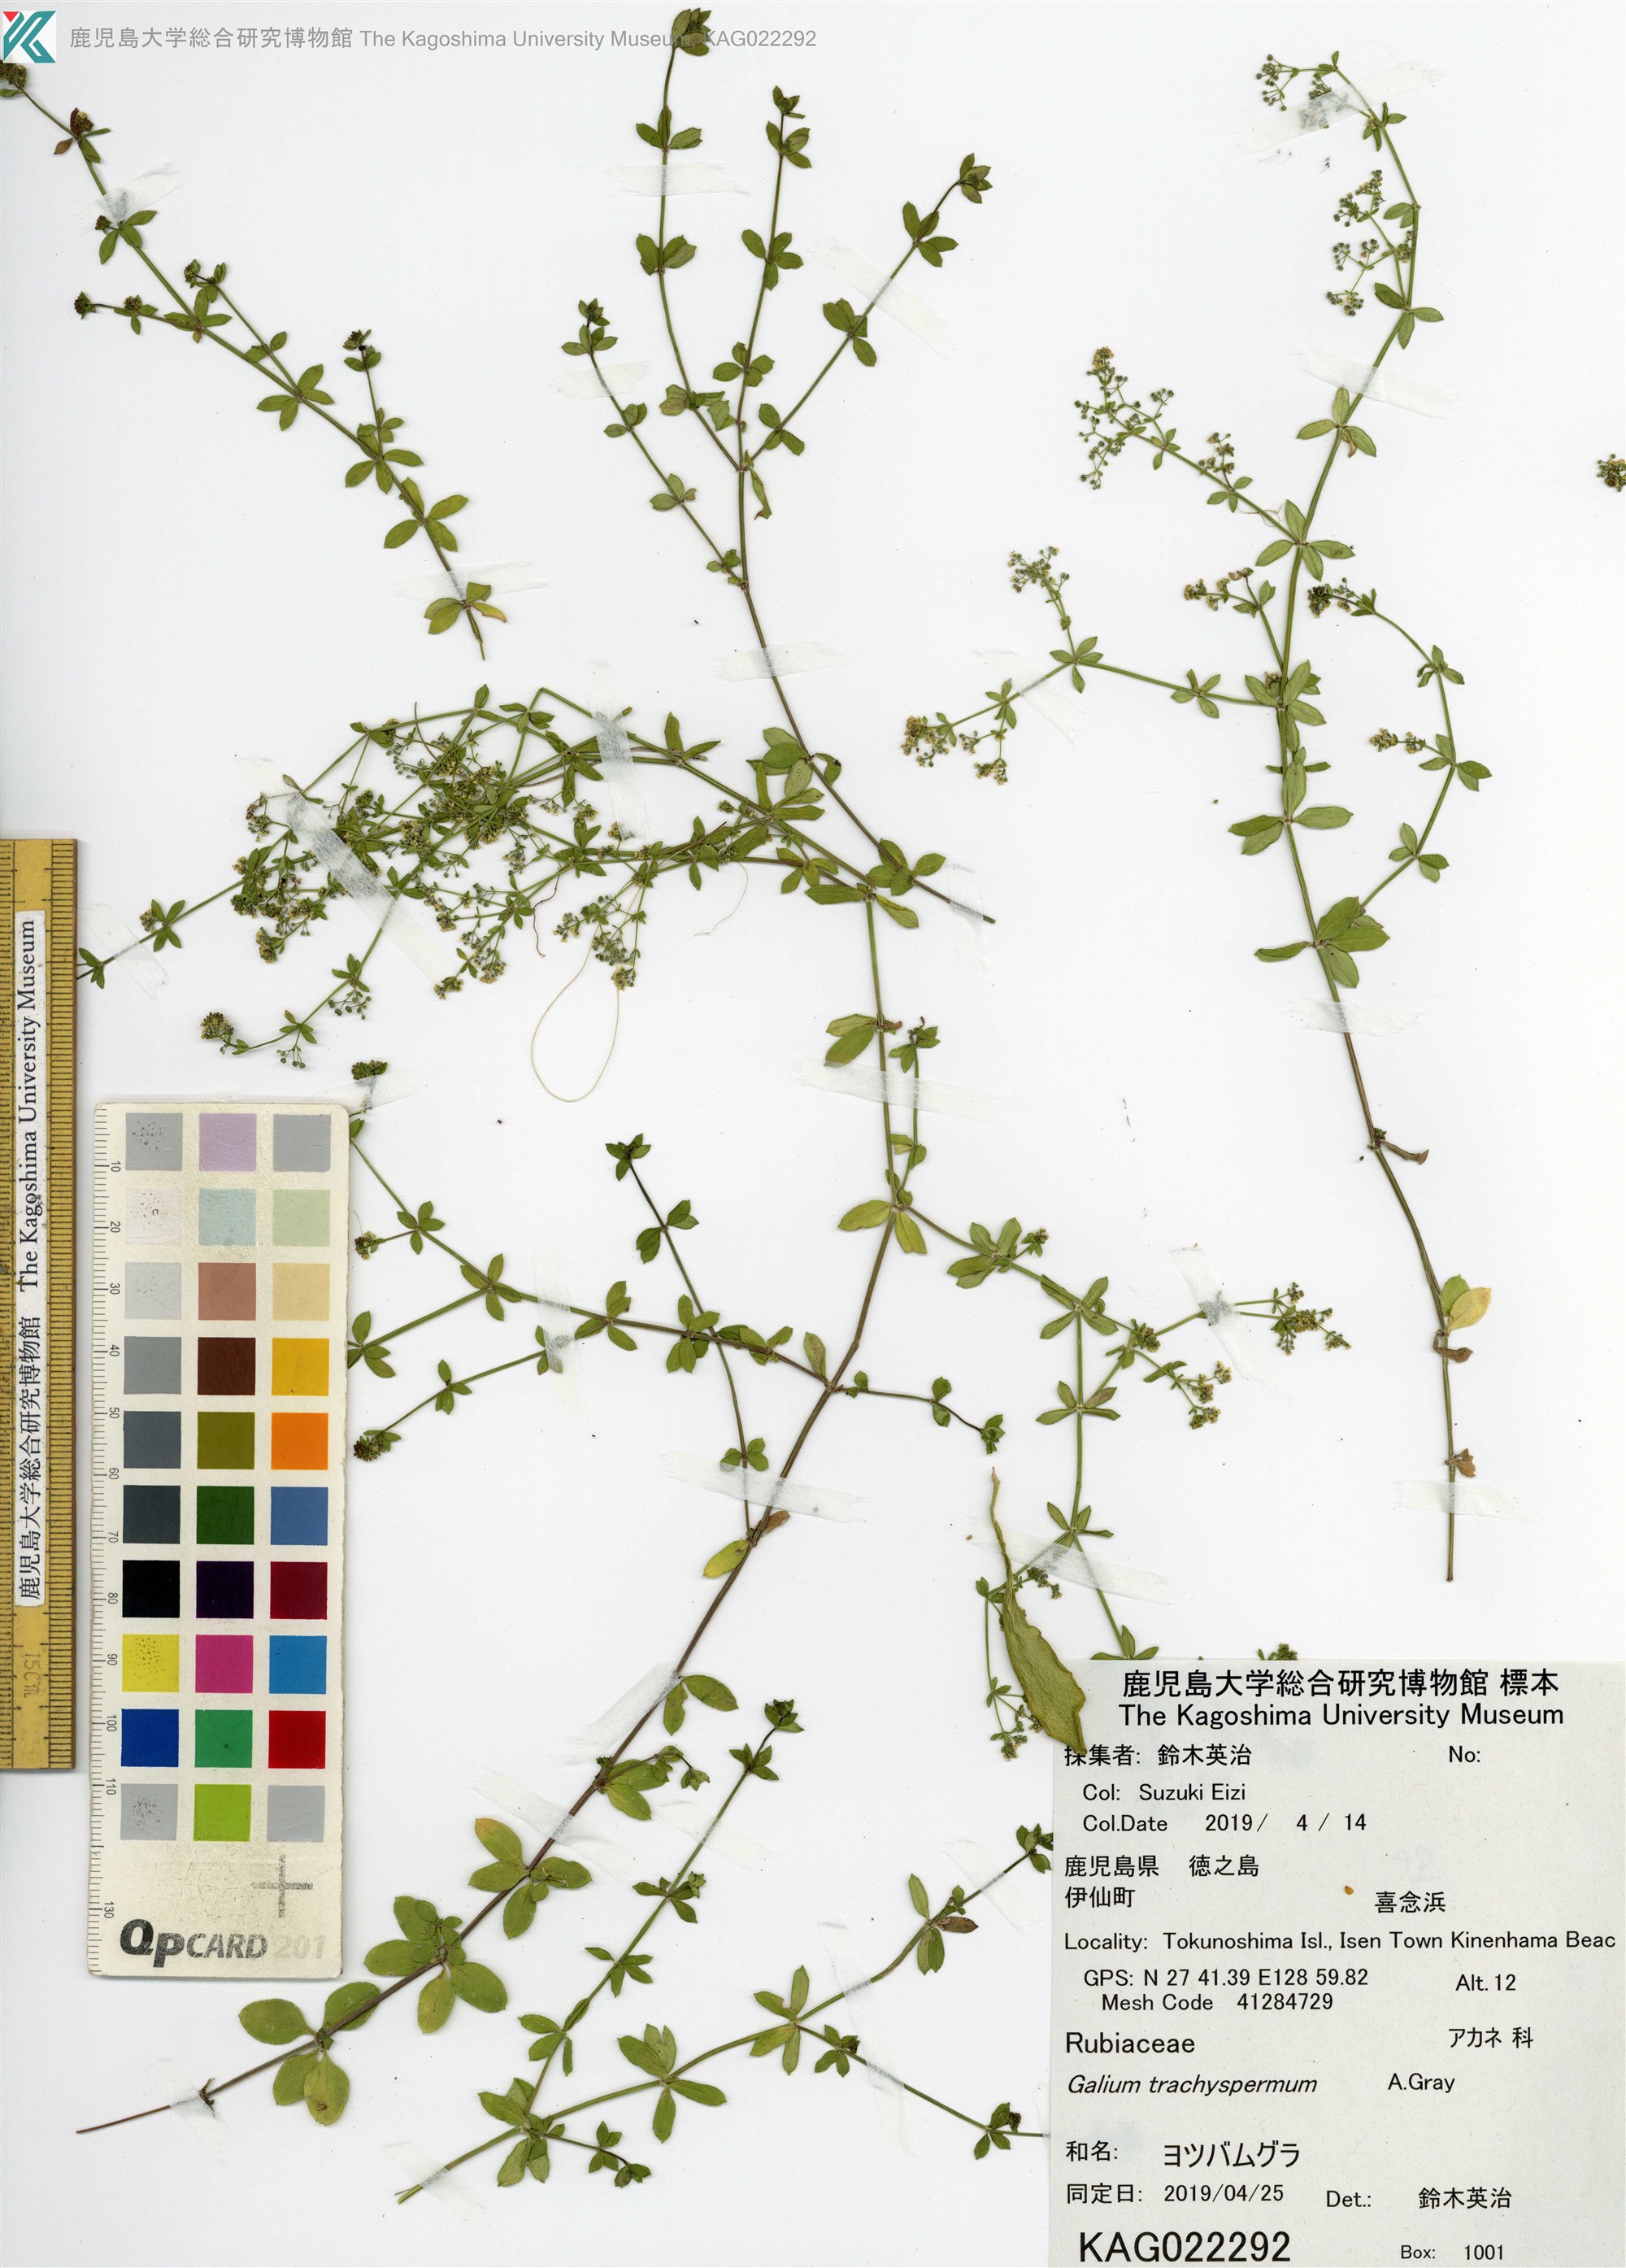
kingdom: Plantae
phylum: Tracheophyta
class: Magnoliopsida
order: Gentianales
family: Rubiaceae
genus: Galium
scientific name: Galium bungei
